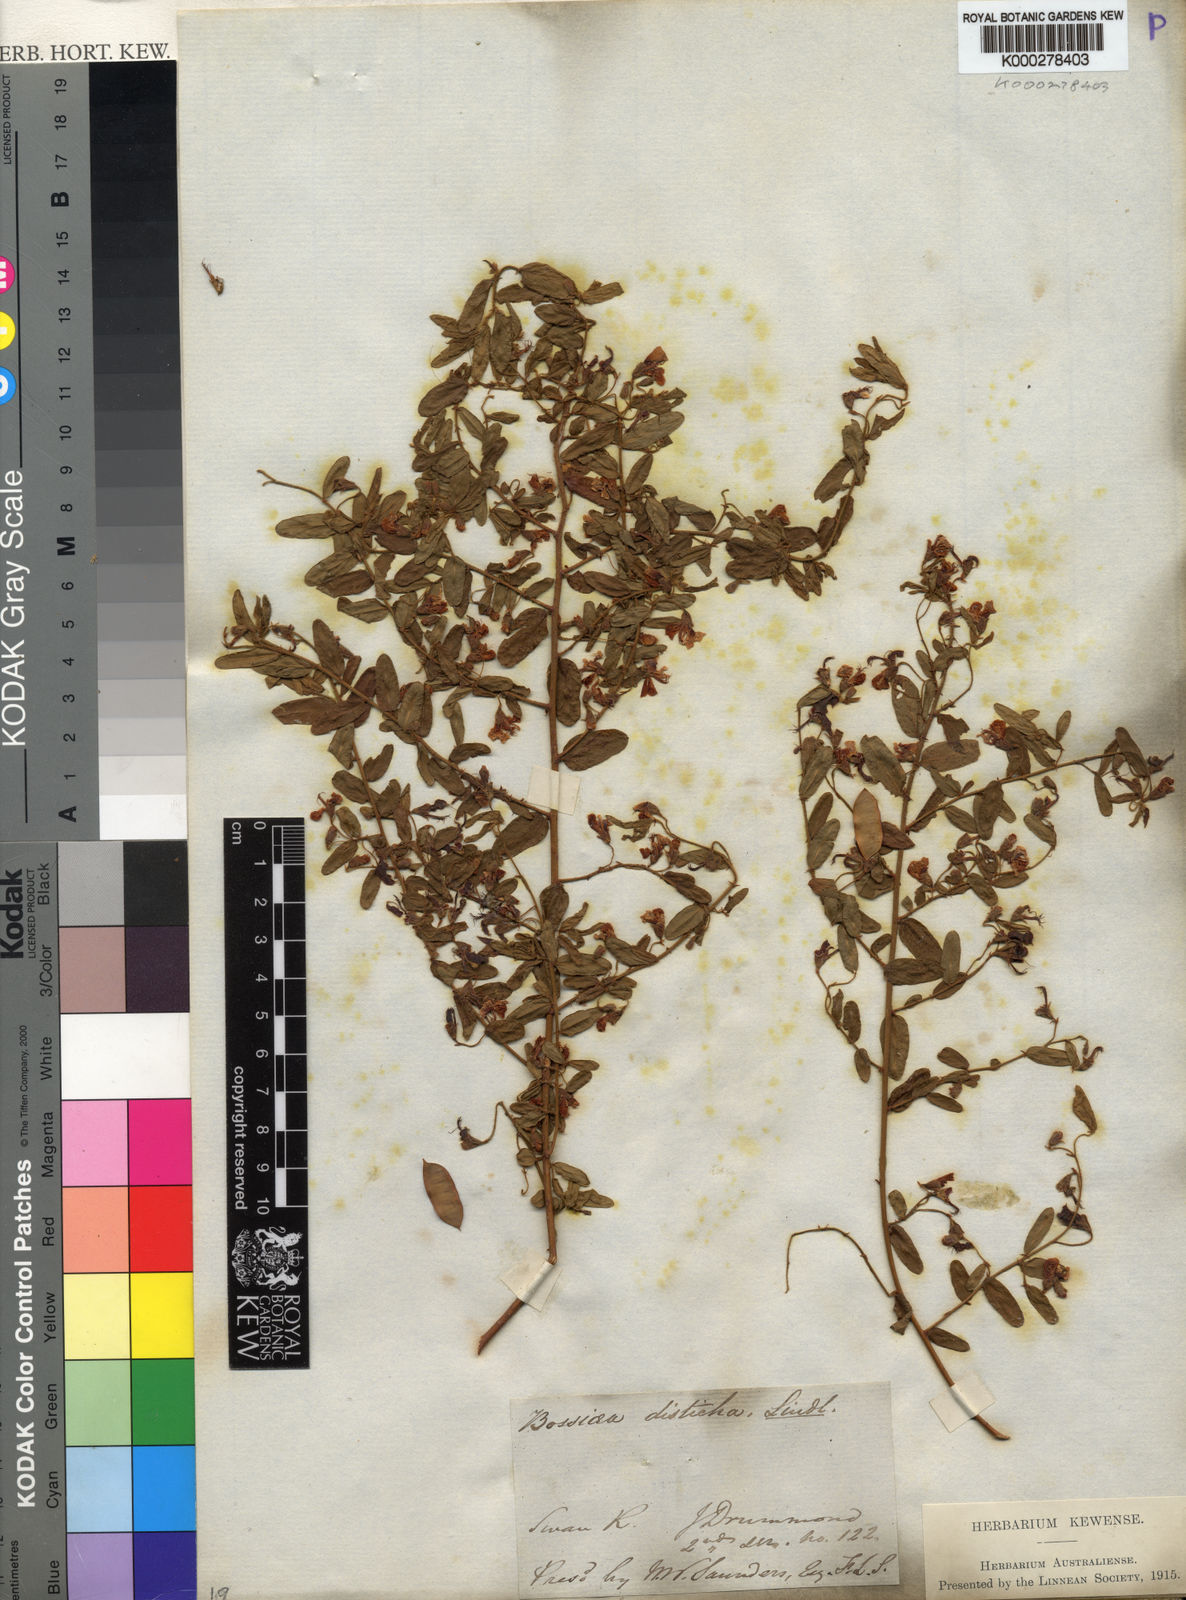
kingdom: Plantae
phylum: Tracheophyta
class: Magnoliopsida
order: Fabales
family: Fabaceae
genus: Bossiaea
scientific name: Bossiaea disticha
